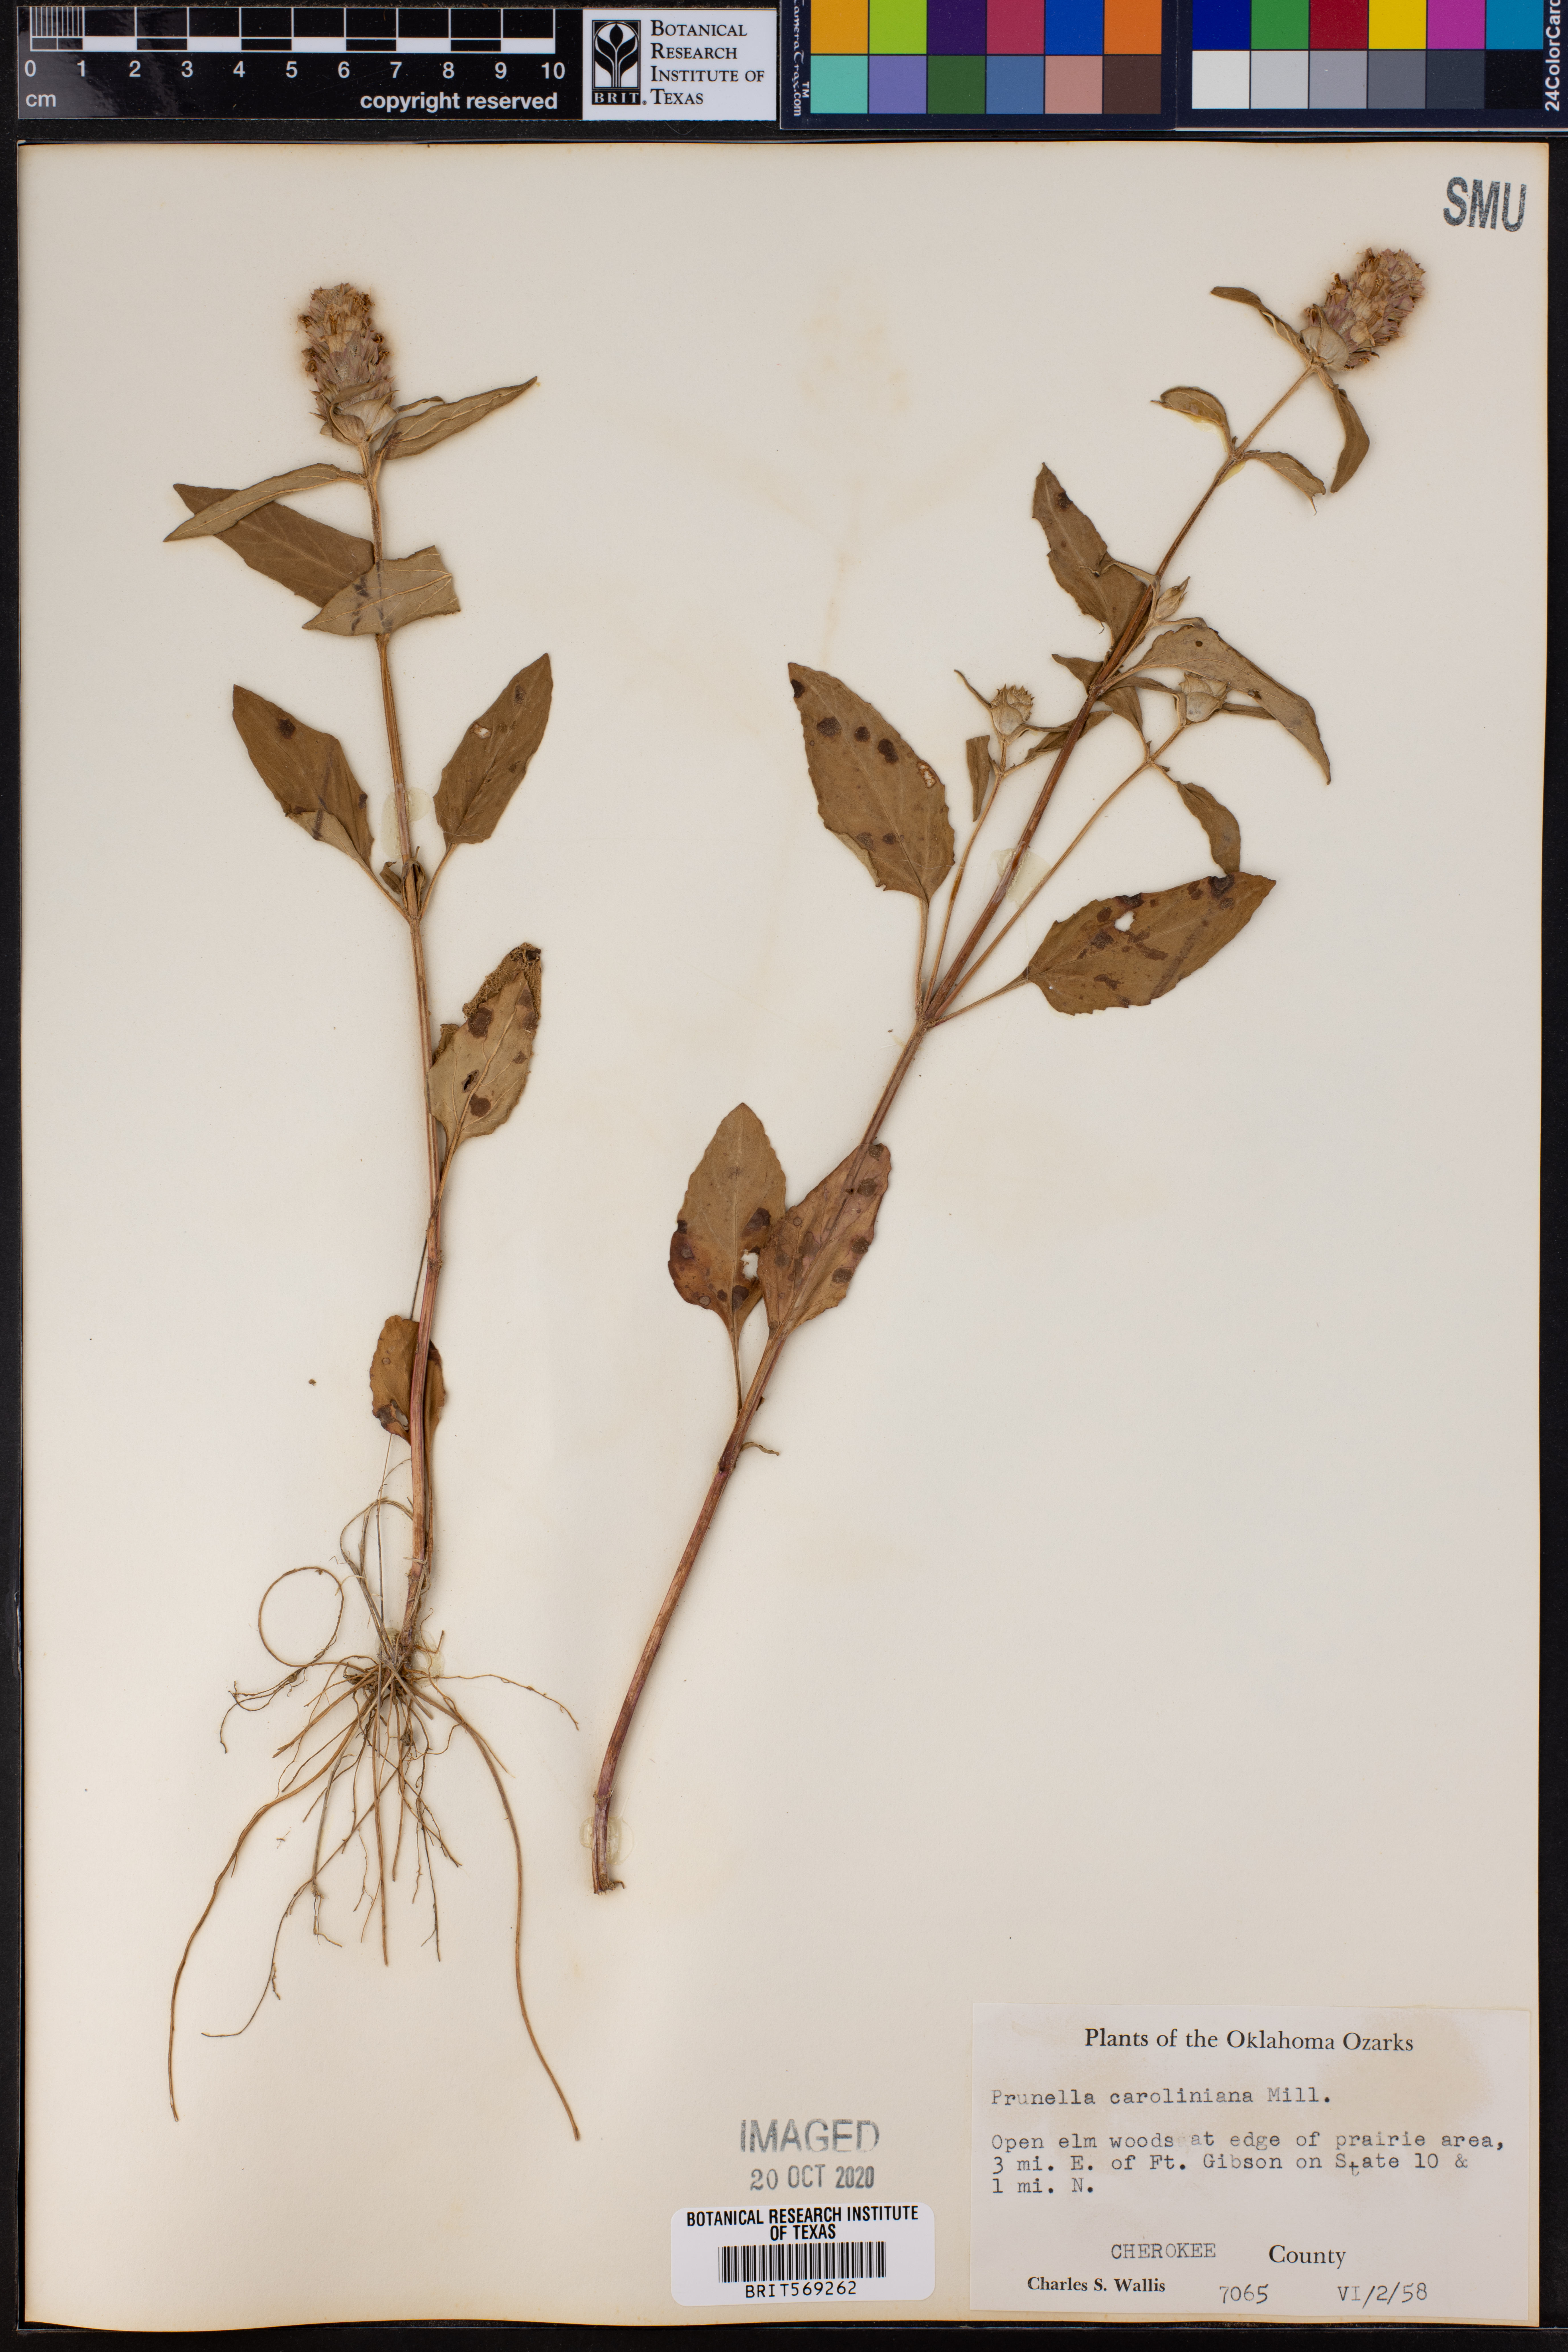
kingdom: Plantae
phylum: Tracheophyta
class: Magnoliopsida
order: Lamiales
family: Lamiaceae
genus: Prunella
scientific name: Prunella vulgaris
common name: Heal-all
